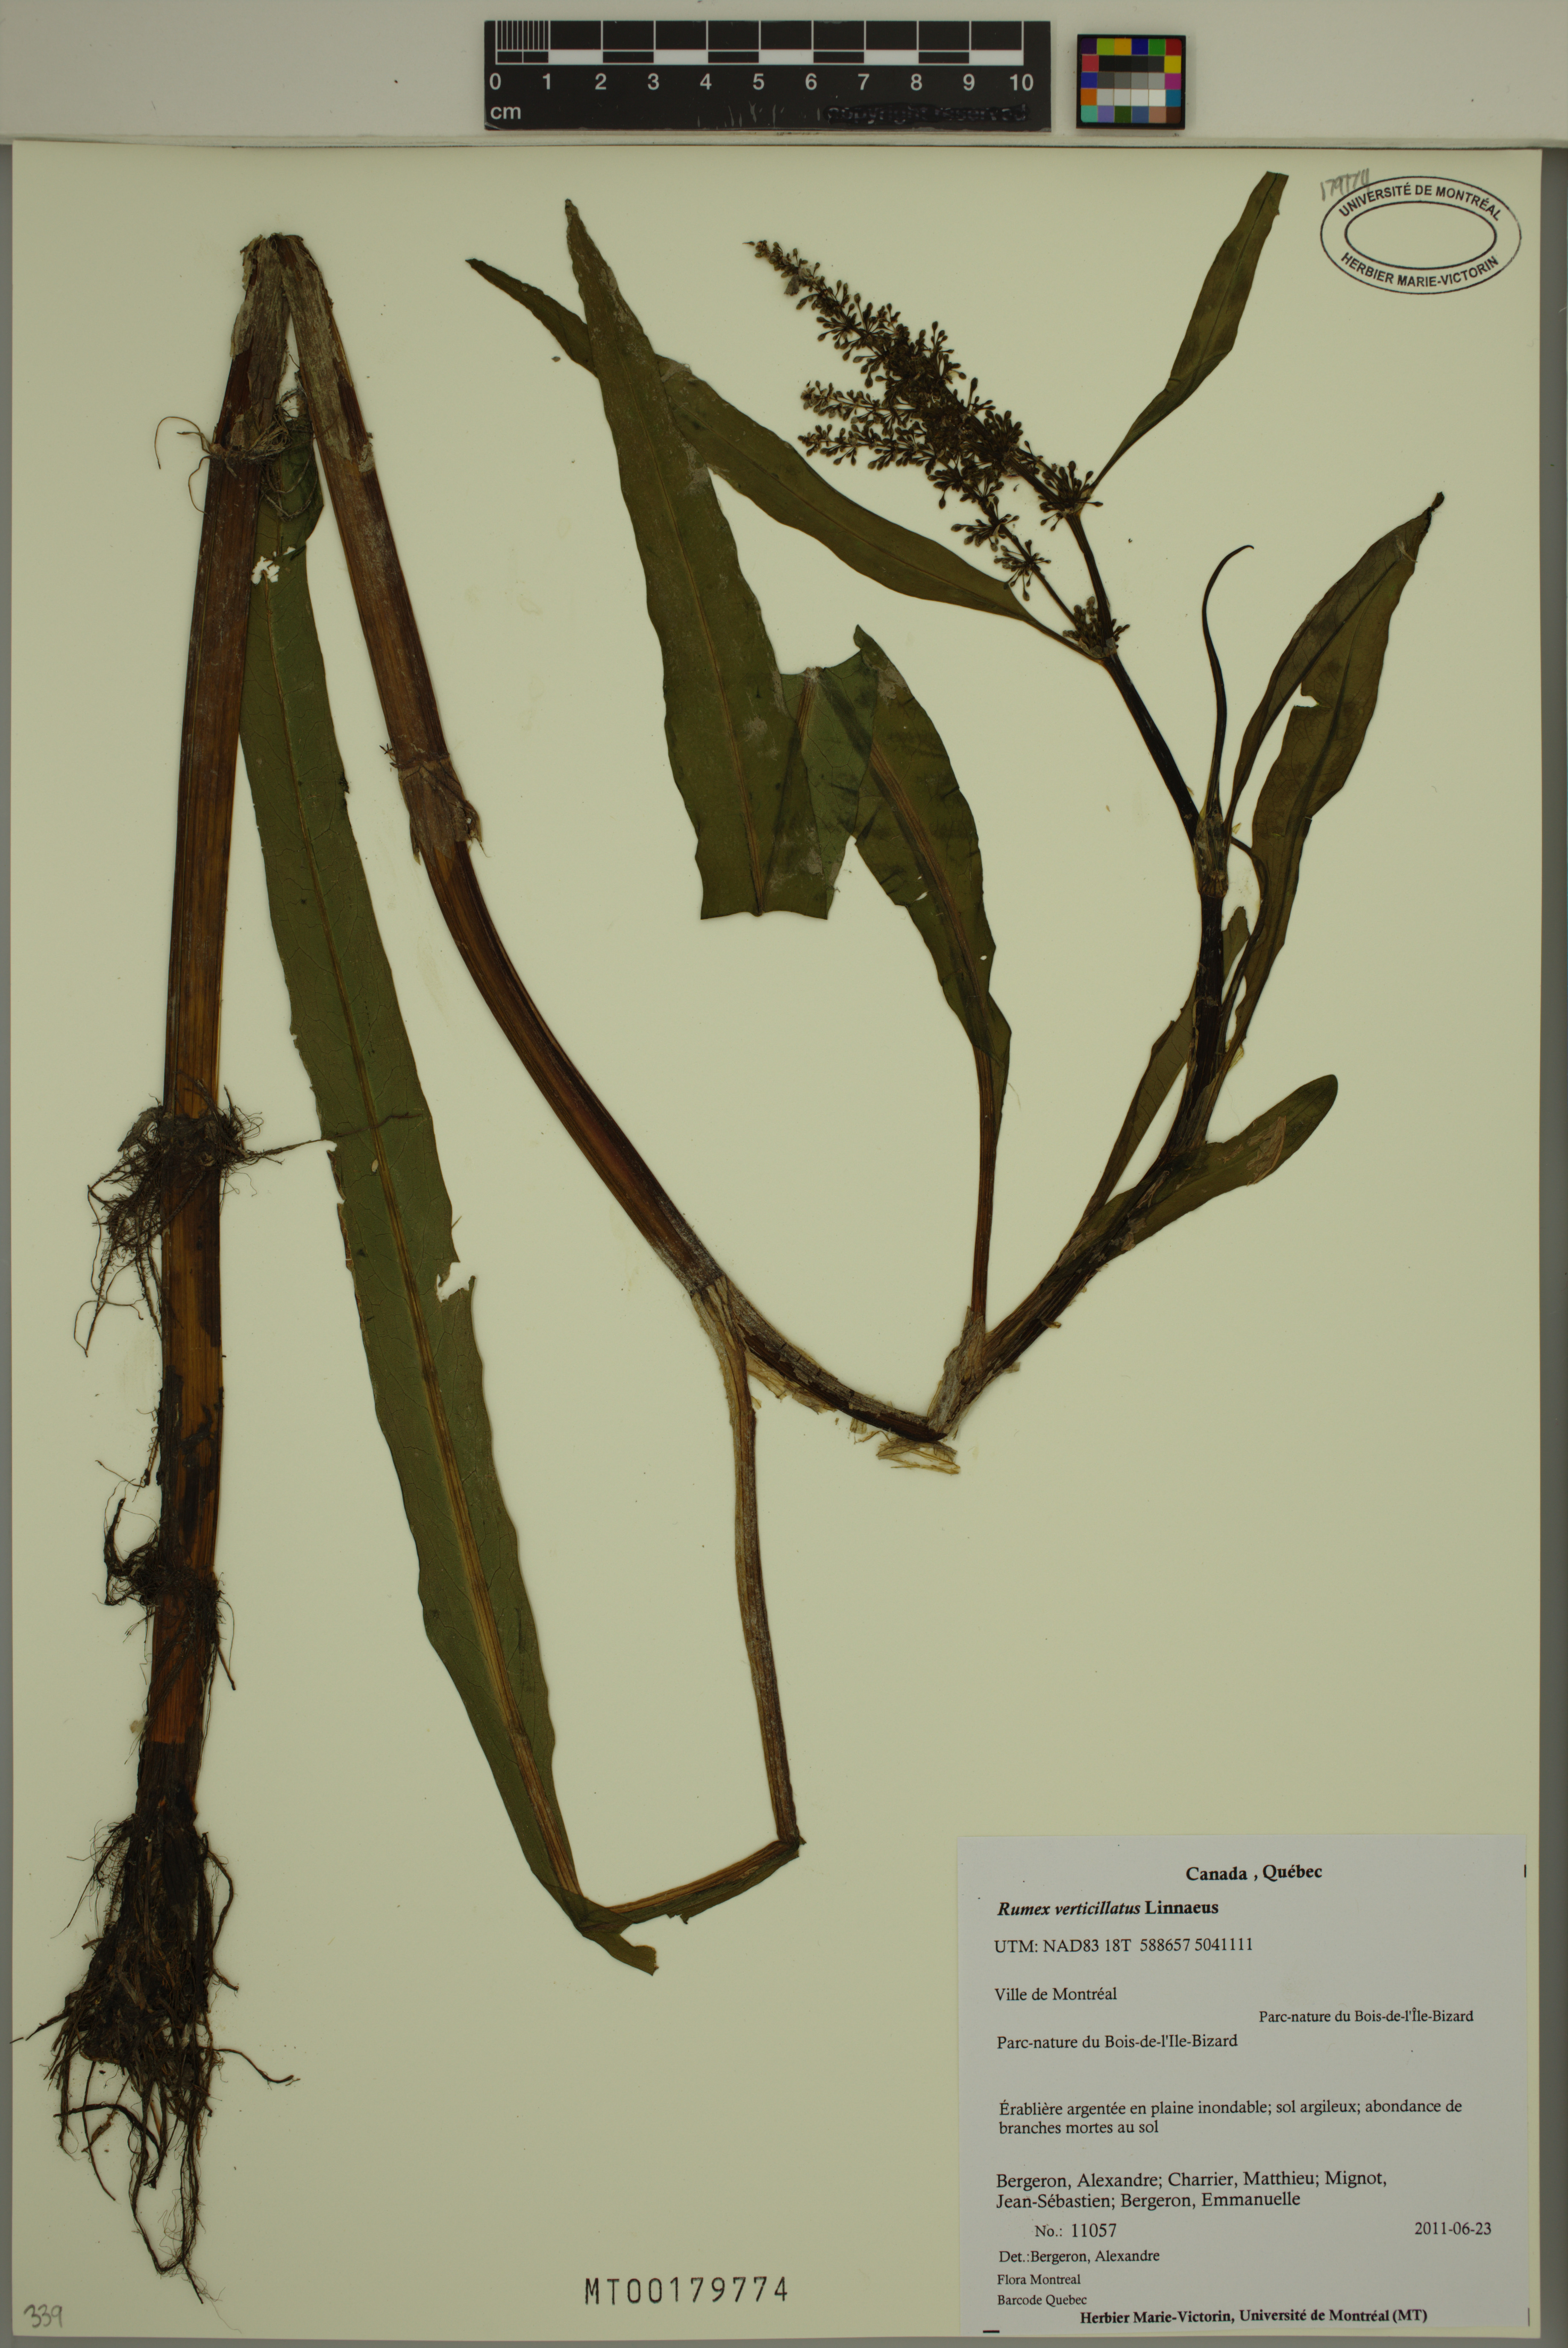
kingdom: Plantae
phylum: Tracheophyta
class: Magnoliopsida
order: Caryophyllales
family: Polygonaceae
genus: Rumex
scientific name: Rumex verticillatus
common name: Swamp dock
